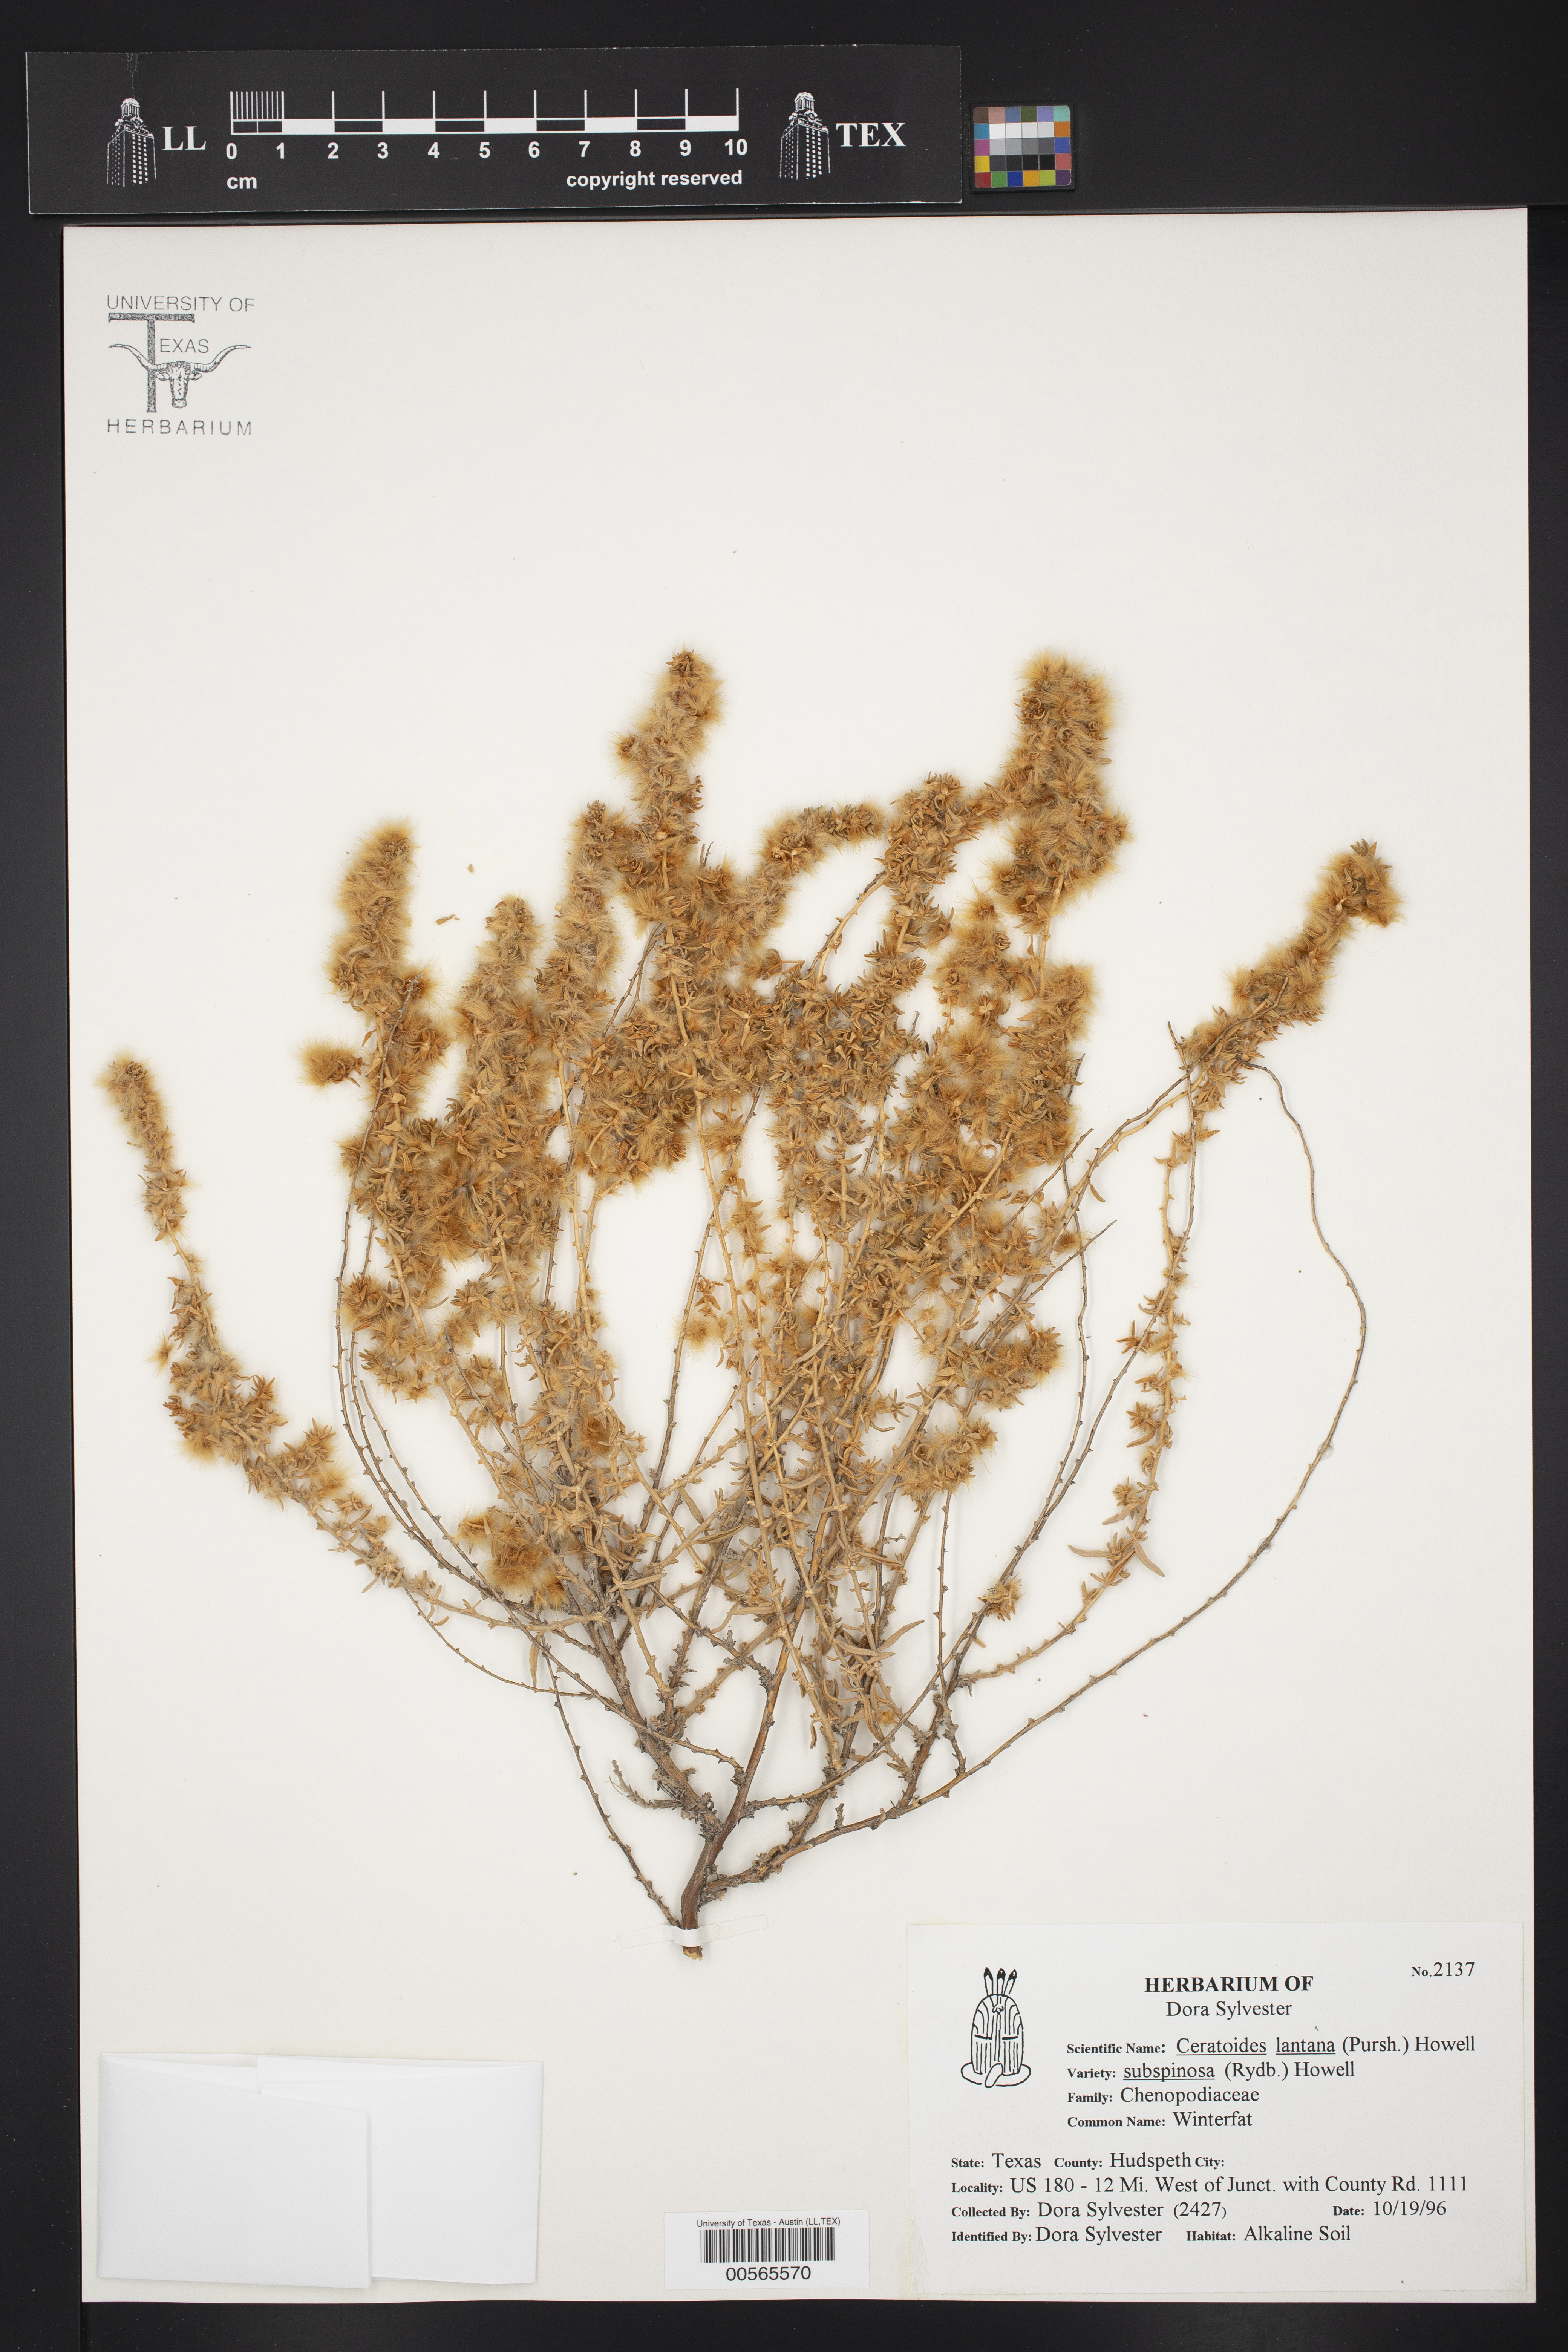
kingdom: Plantae
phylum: Tracheophyta
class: Magnoliopsida
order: Caryophyllales
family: Amaranthaceae
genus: Krascheninnikovia
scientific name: Krascheninnikovia lanata
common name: Winterfat
